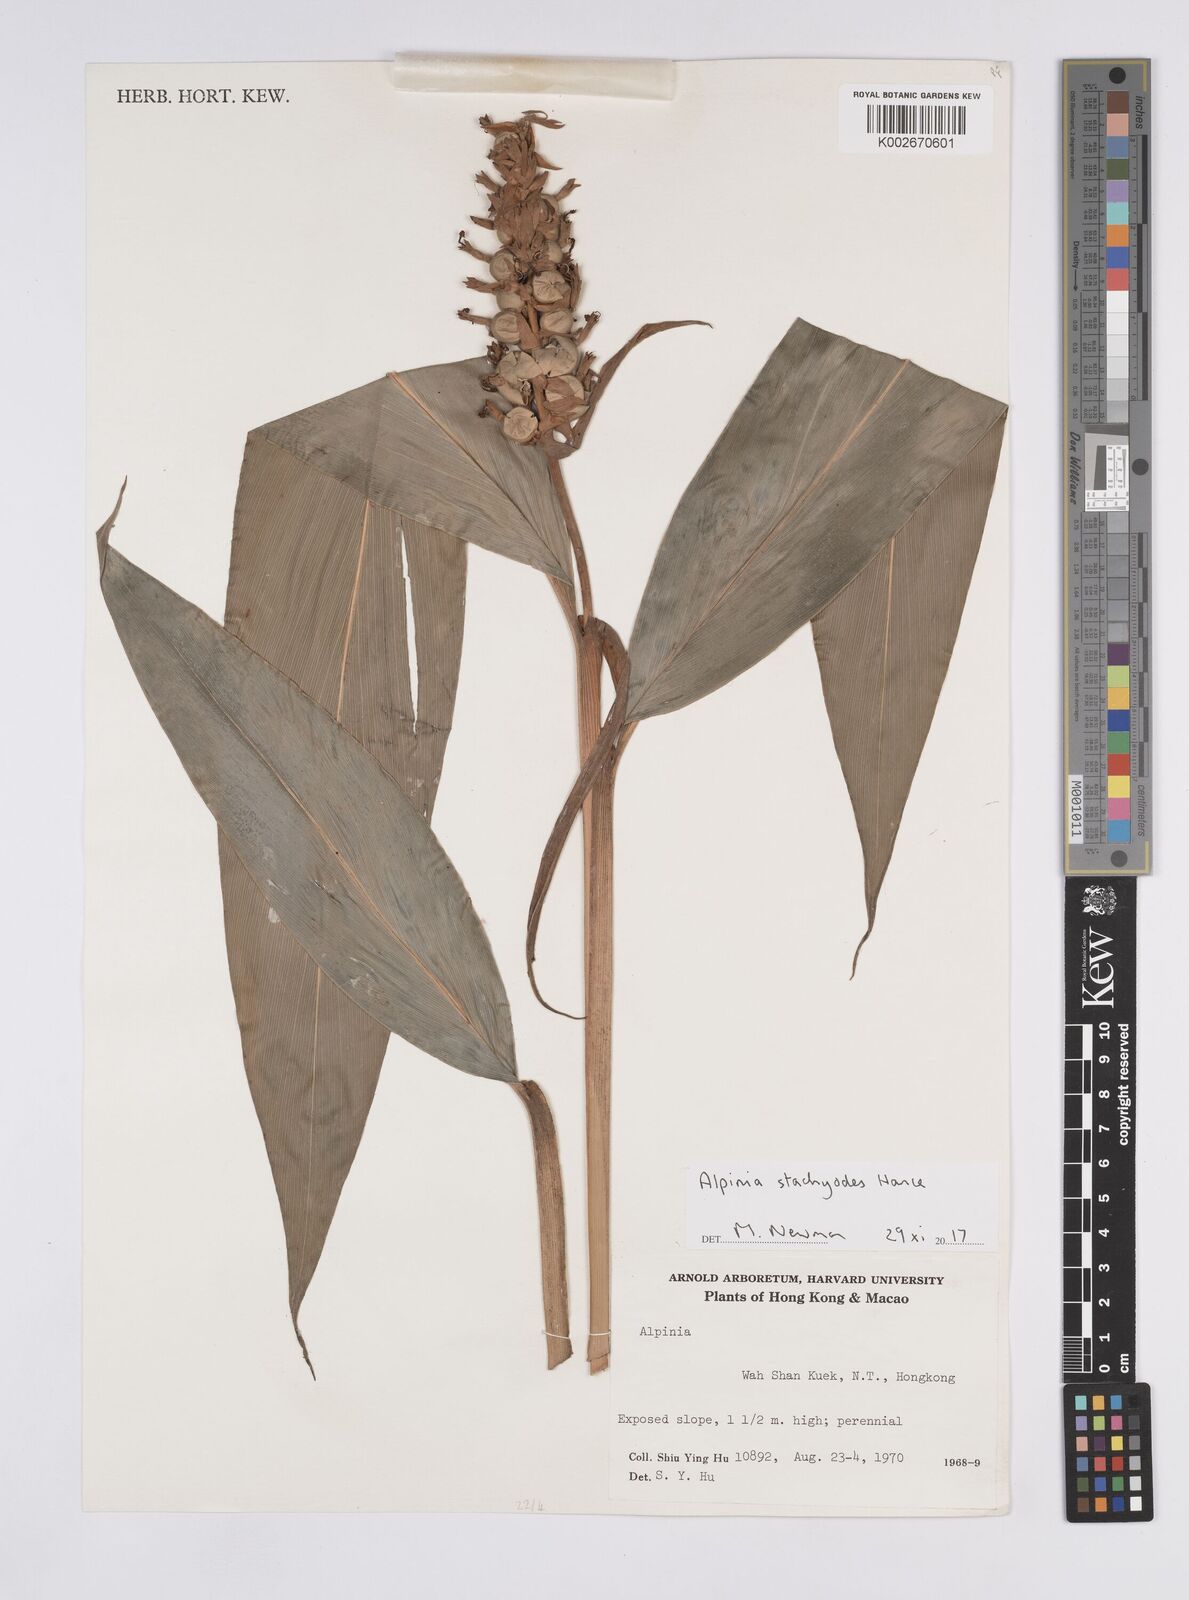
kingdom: Plantae
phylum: Tracheophyta
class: Liliopsida
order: Zingiberales
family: Zingiberaceae
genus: Alpinia
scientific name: Alpinia stachyodes
